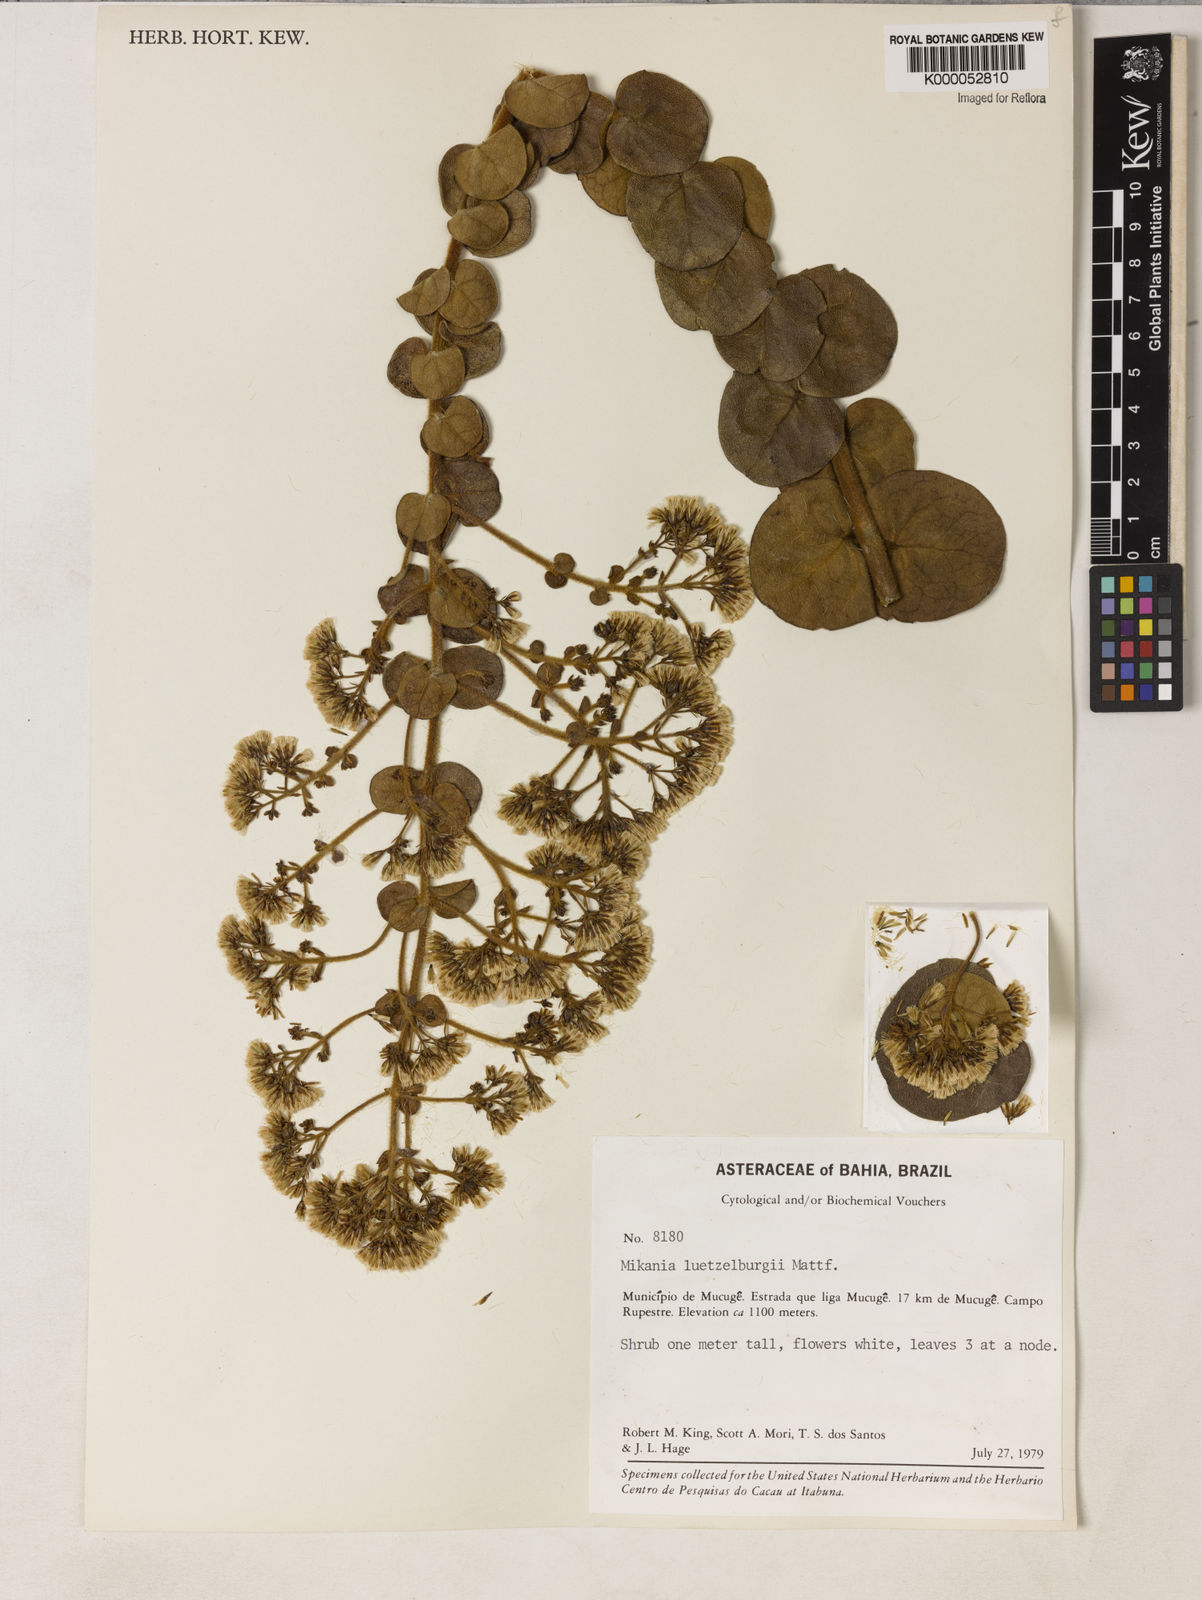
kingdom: Plantae
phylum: Tracheophyta
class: Magnoliopsida
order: Asterales
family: Asteraceae
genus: Mikania
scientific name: Mikania luetzelburgii
